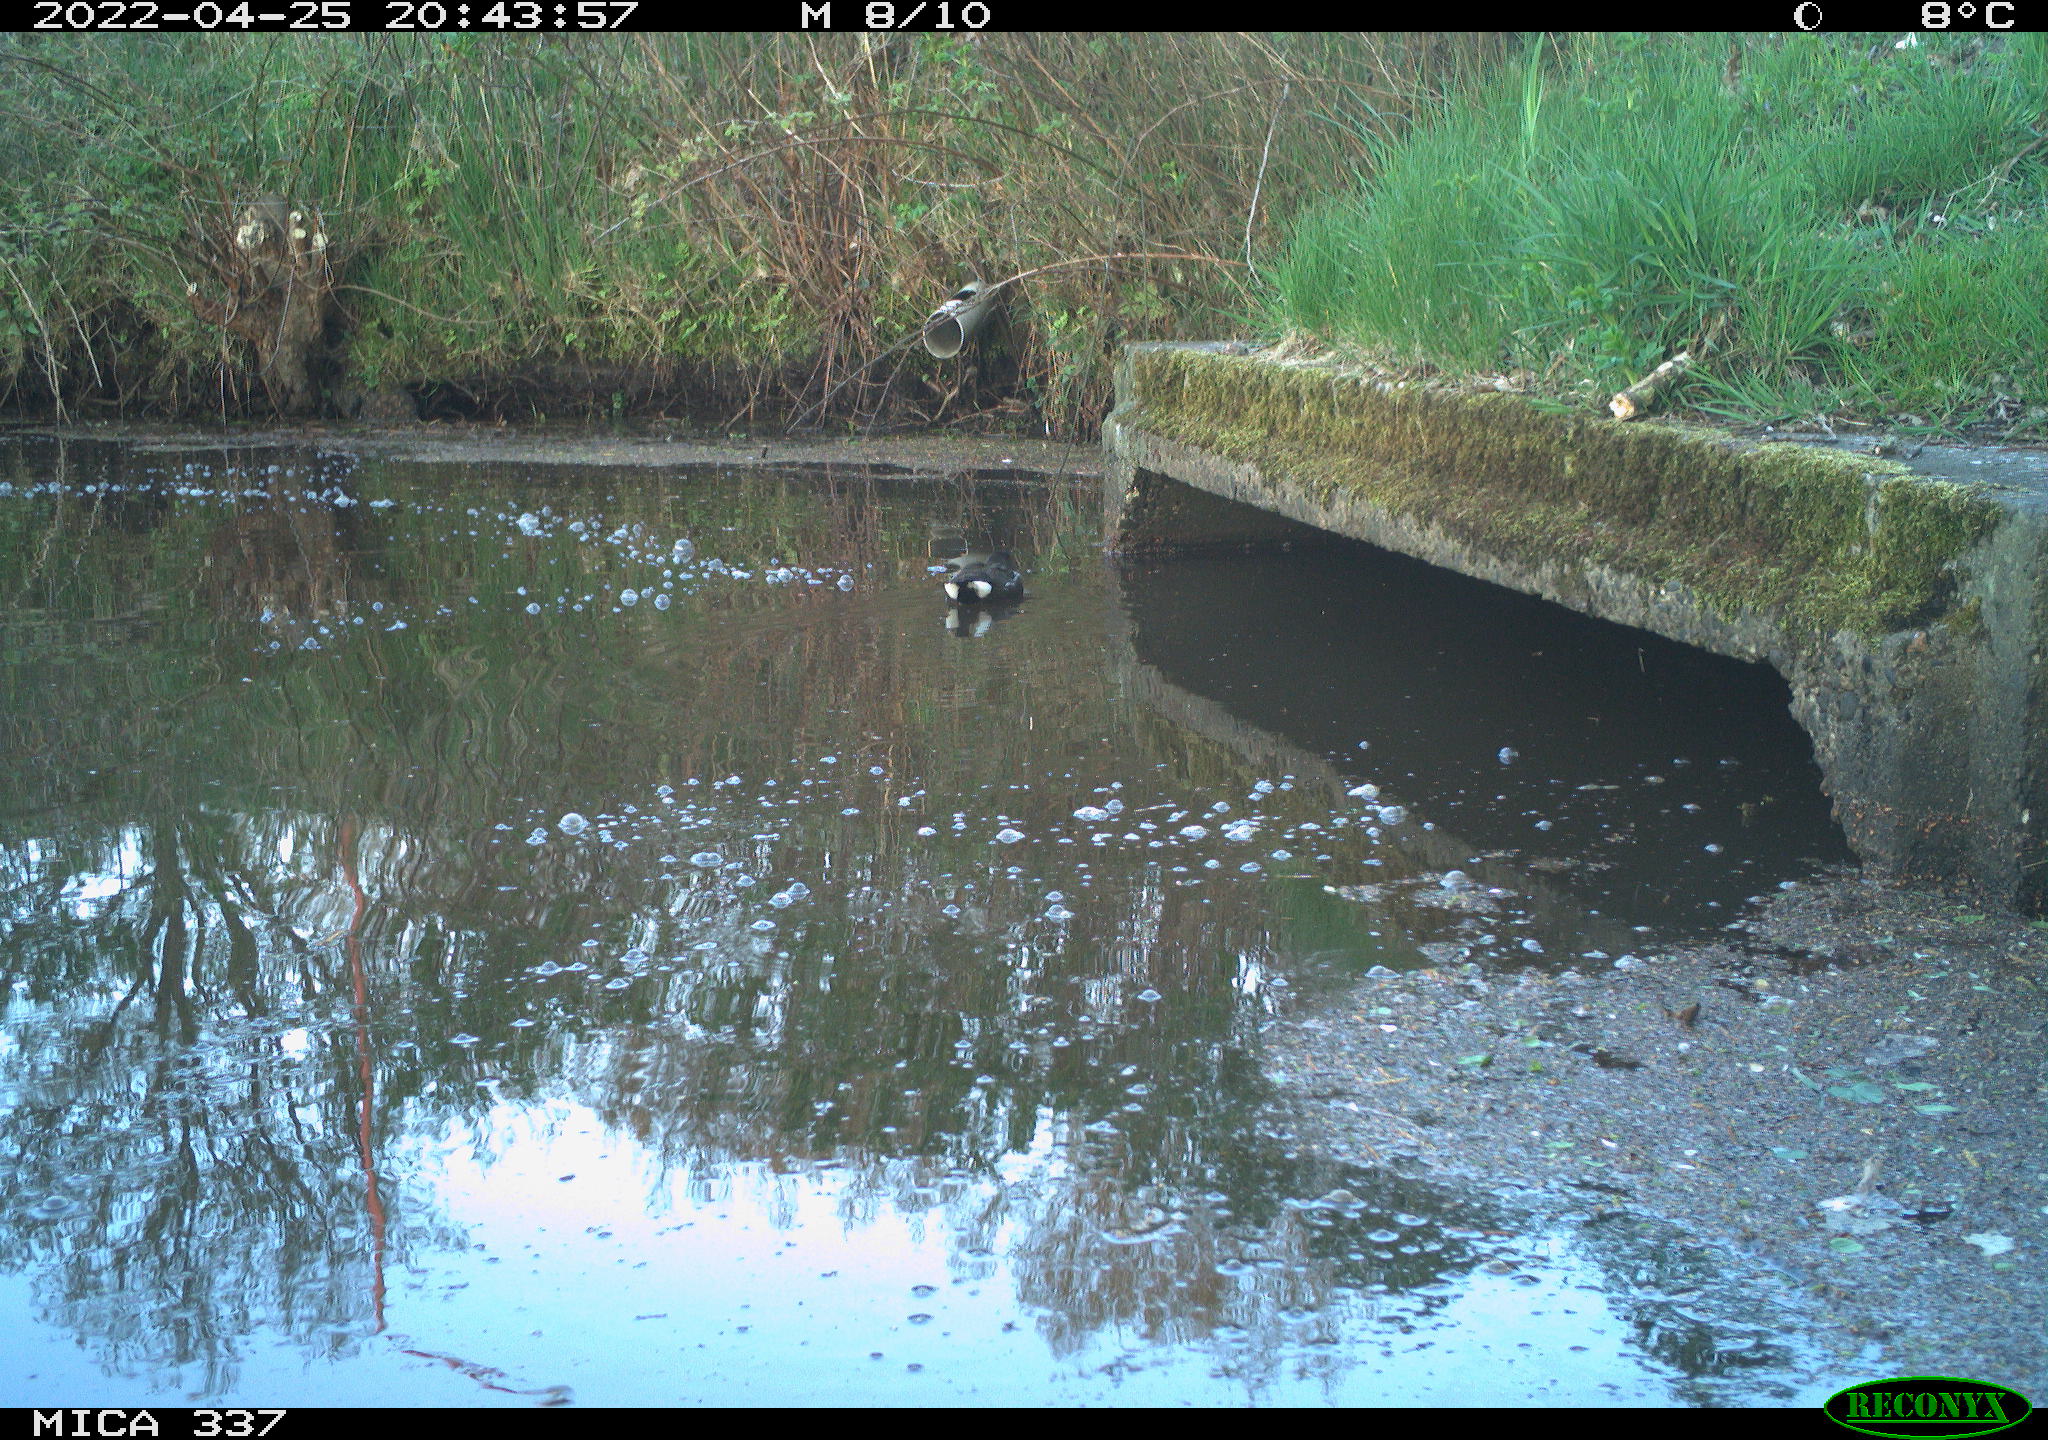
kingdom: Animalia
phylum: Chordata
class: Aves
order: Gruiformes
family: Rallidae
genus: Gallinula
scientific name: Gallinula chloropus
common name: Common moorhen
